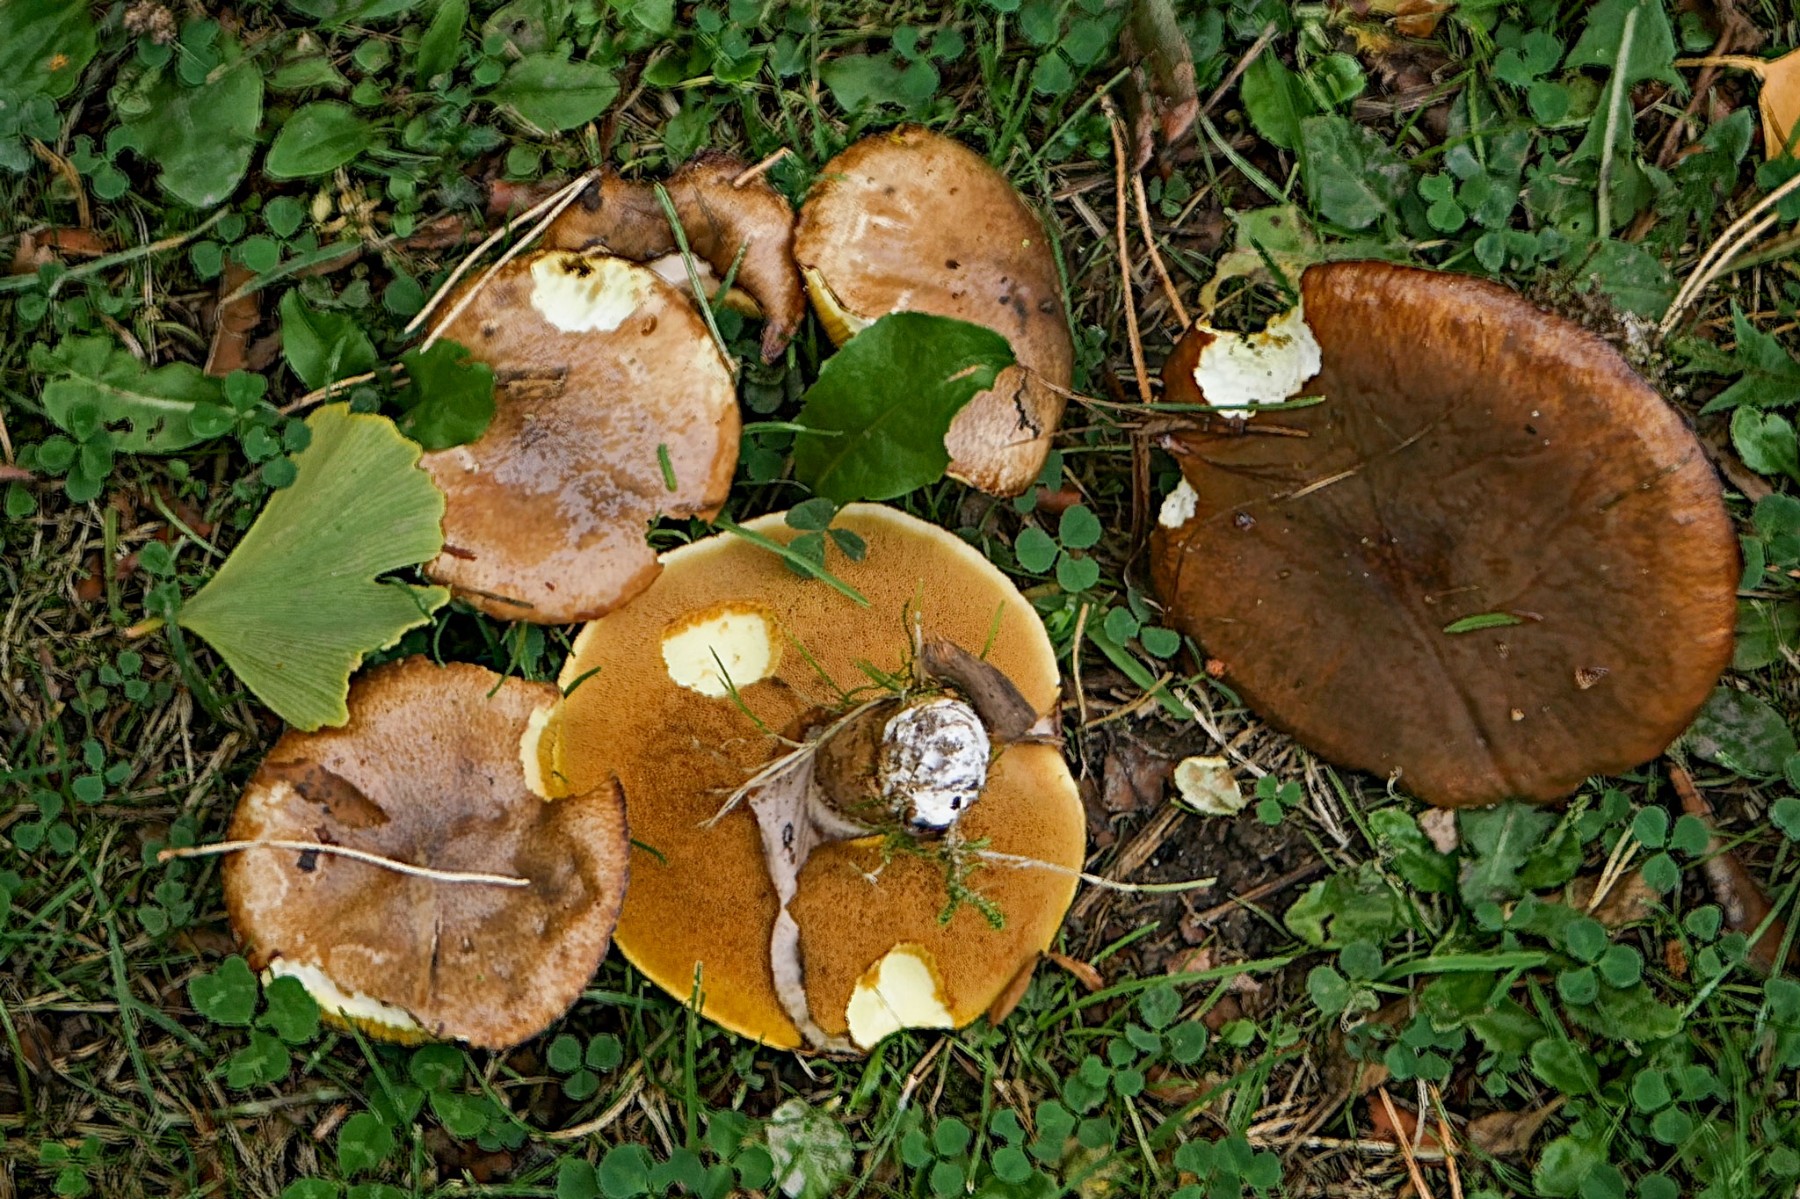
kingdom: Fungi
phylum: Basidiomycota
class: Agaricomycetes
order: Boletales
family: Suillaceae
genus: Suillus
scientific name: Suillus luteus
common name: brungul slimrørhat
